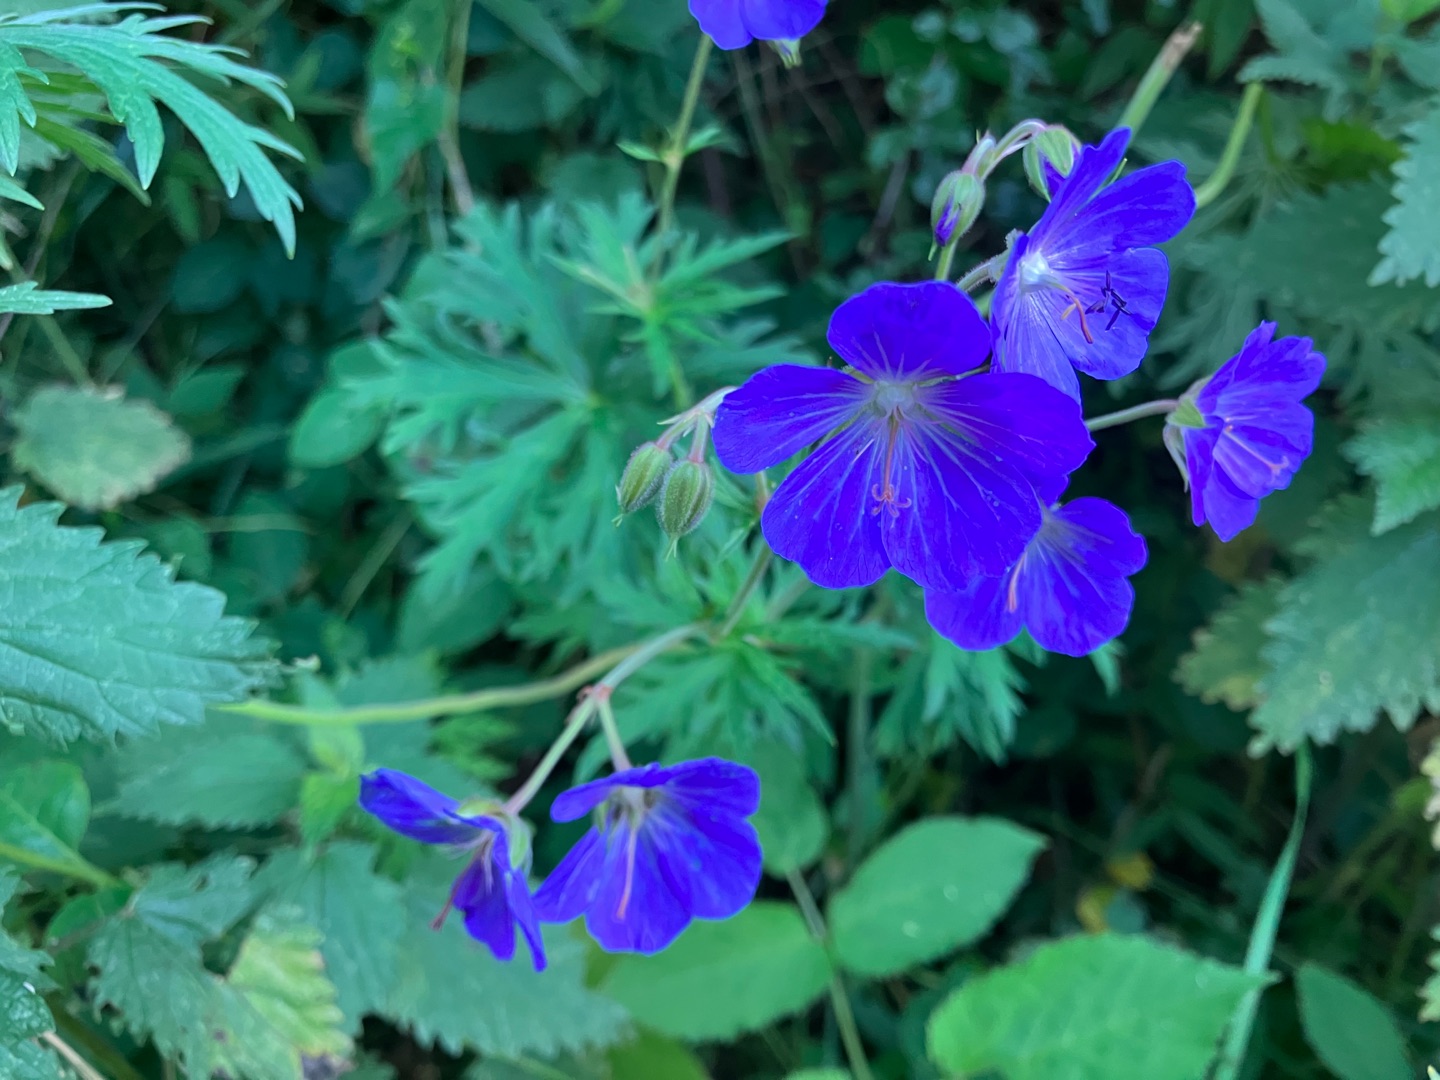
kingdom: Plantae
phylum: Tracheophyta
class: Magnoliopsida
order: Geraniales
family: Geraniaceae
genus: Geranium
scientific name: Geranium pratense
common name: Eng-storkenæb
